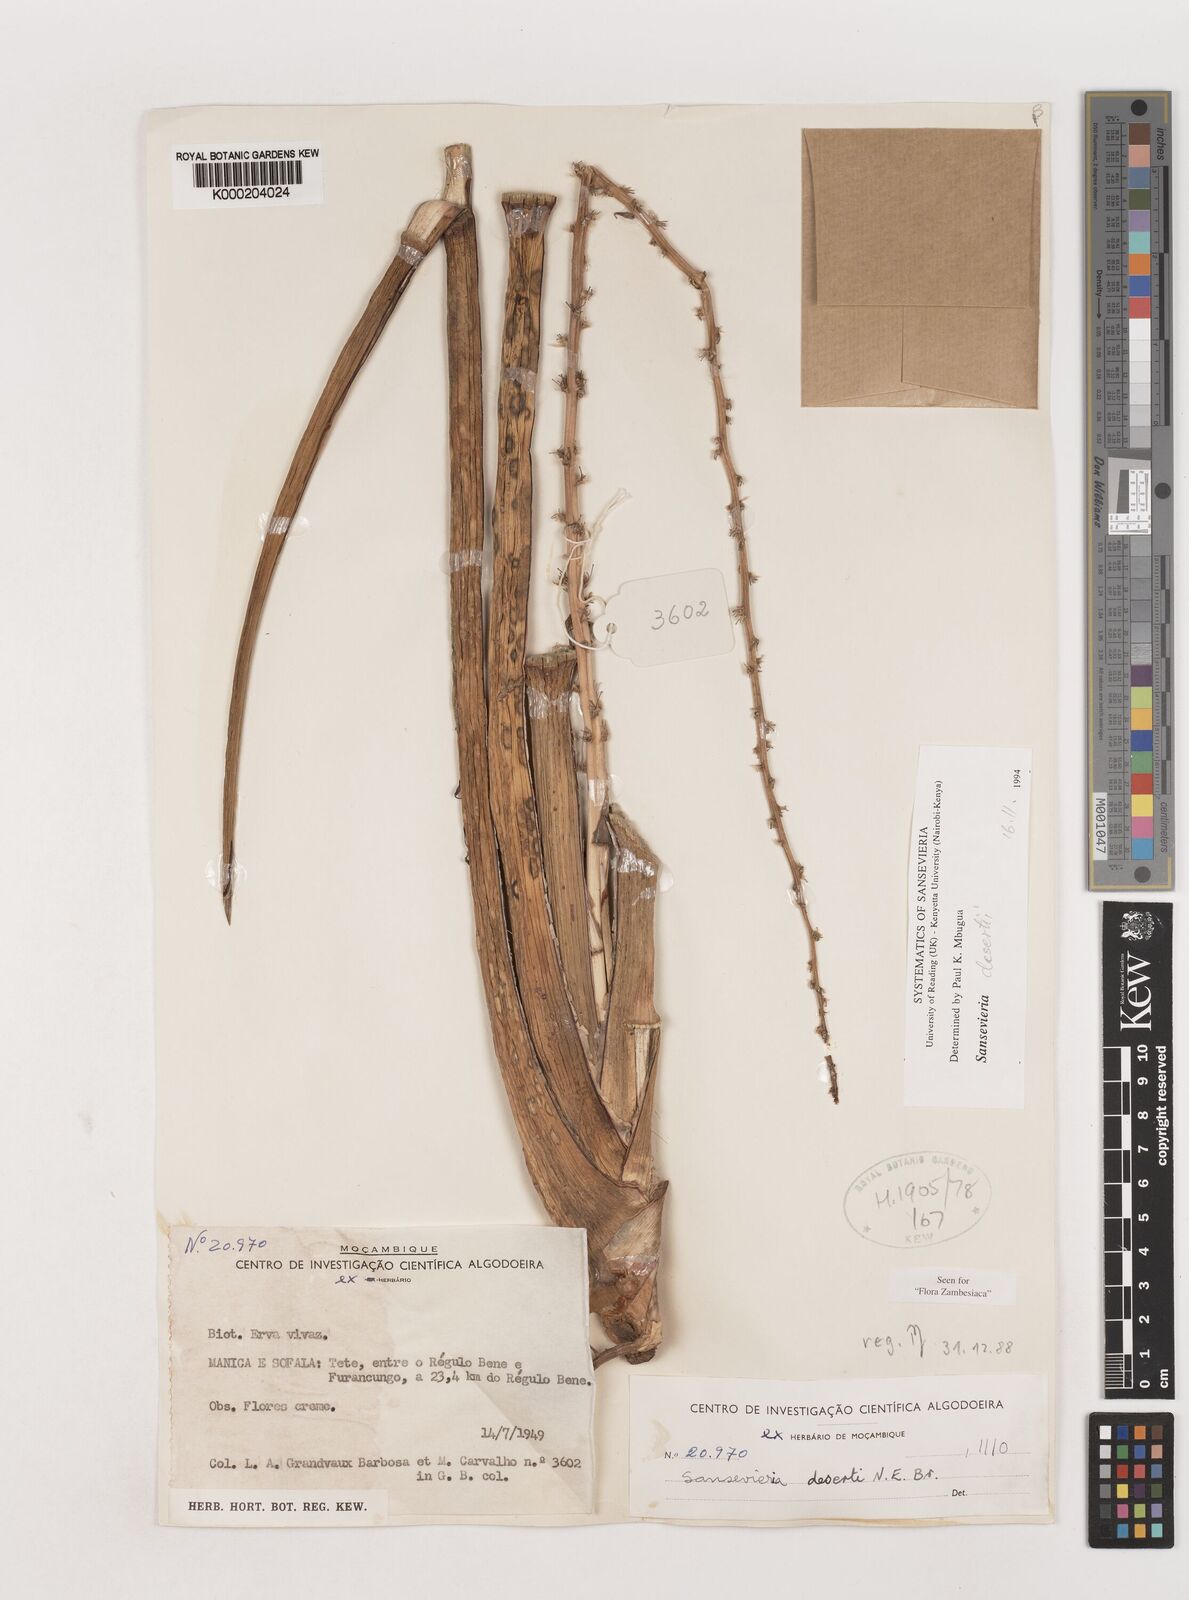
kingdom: Plantae
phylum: Tracheophyta
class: Liliopsida
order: Asparagales
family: Asparagaceae
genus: Dracaena
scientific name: Dracaena pearsonii
